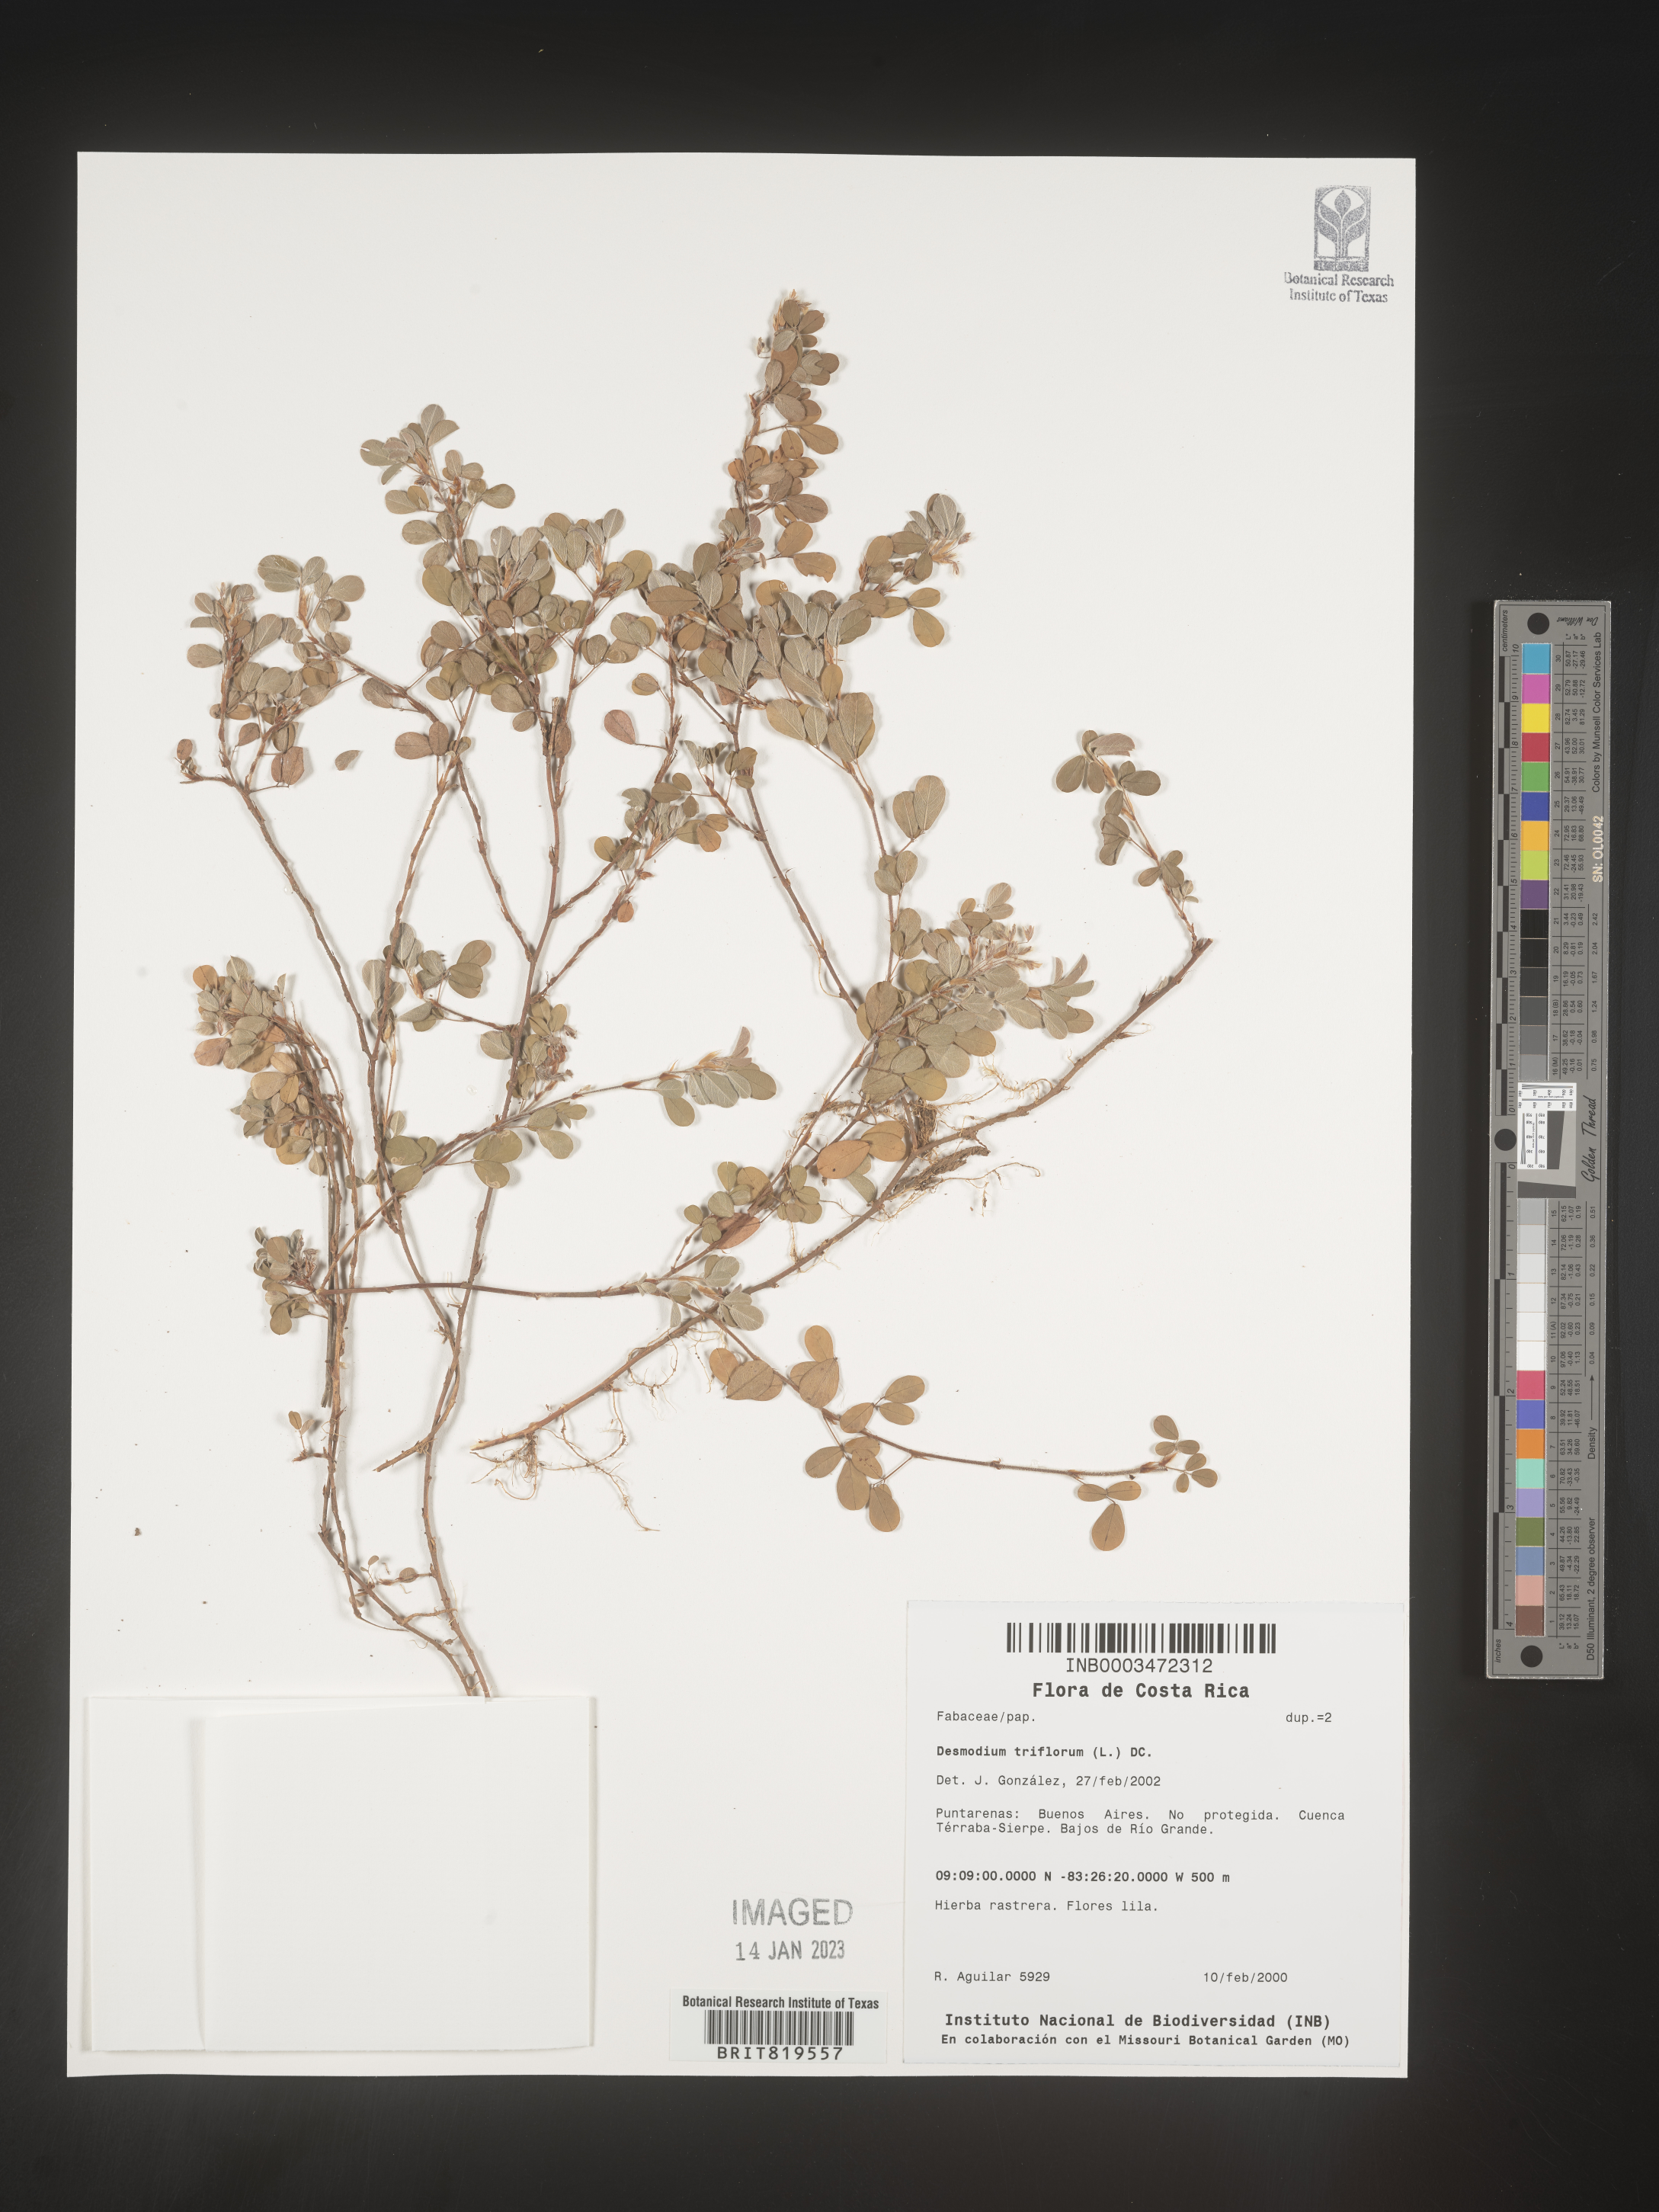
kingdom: Plantae
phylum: Tracheophyta
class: Magnoliopsida
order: Fabales
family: Fabaceae
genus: Desmodium
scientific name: Desmodium
